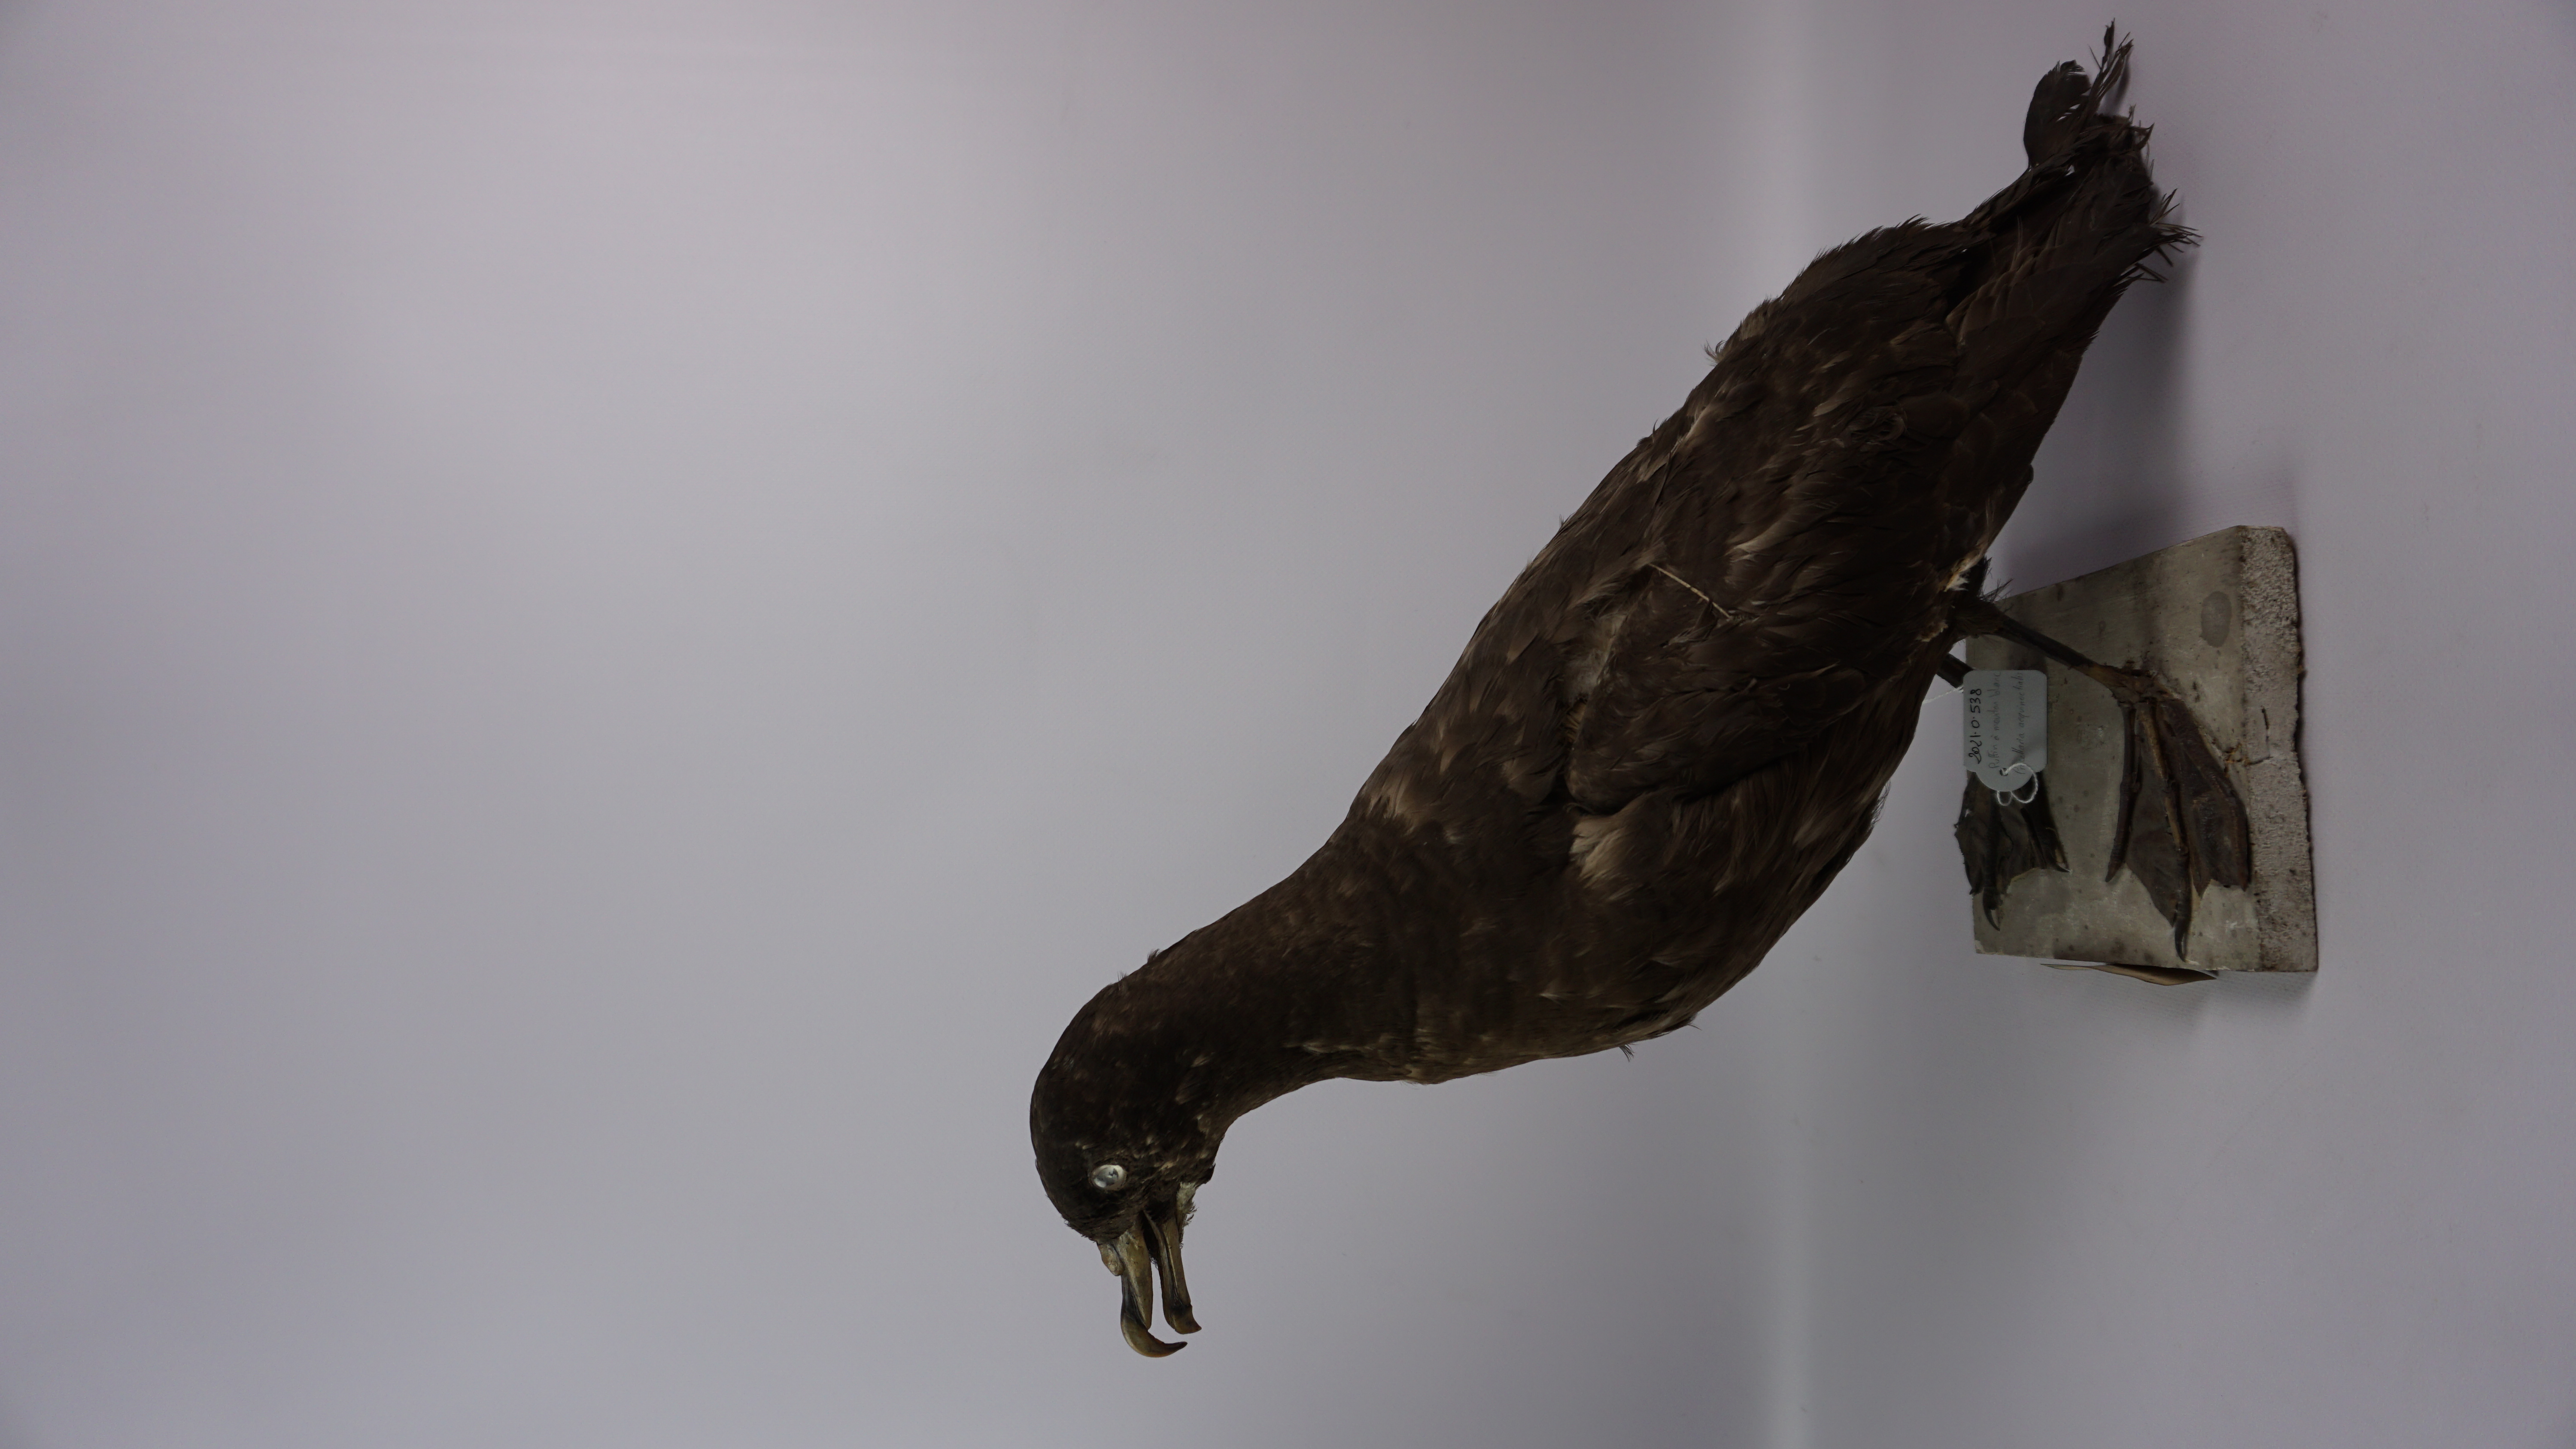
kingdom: Animalia
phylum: Chordata
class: Aves
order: Procellariiformes
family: Procellariidae
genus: Procellaria
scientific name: Procellaria aequinoctialis
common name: White-chinned petrel
